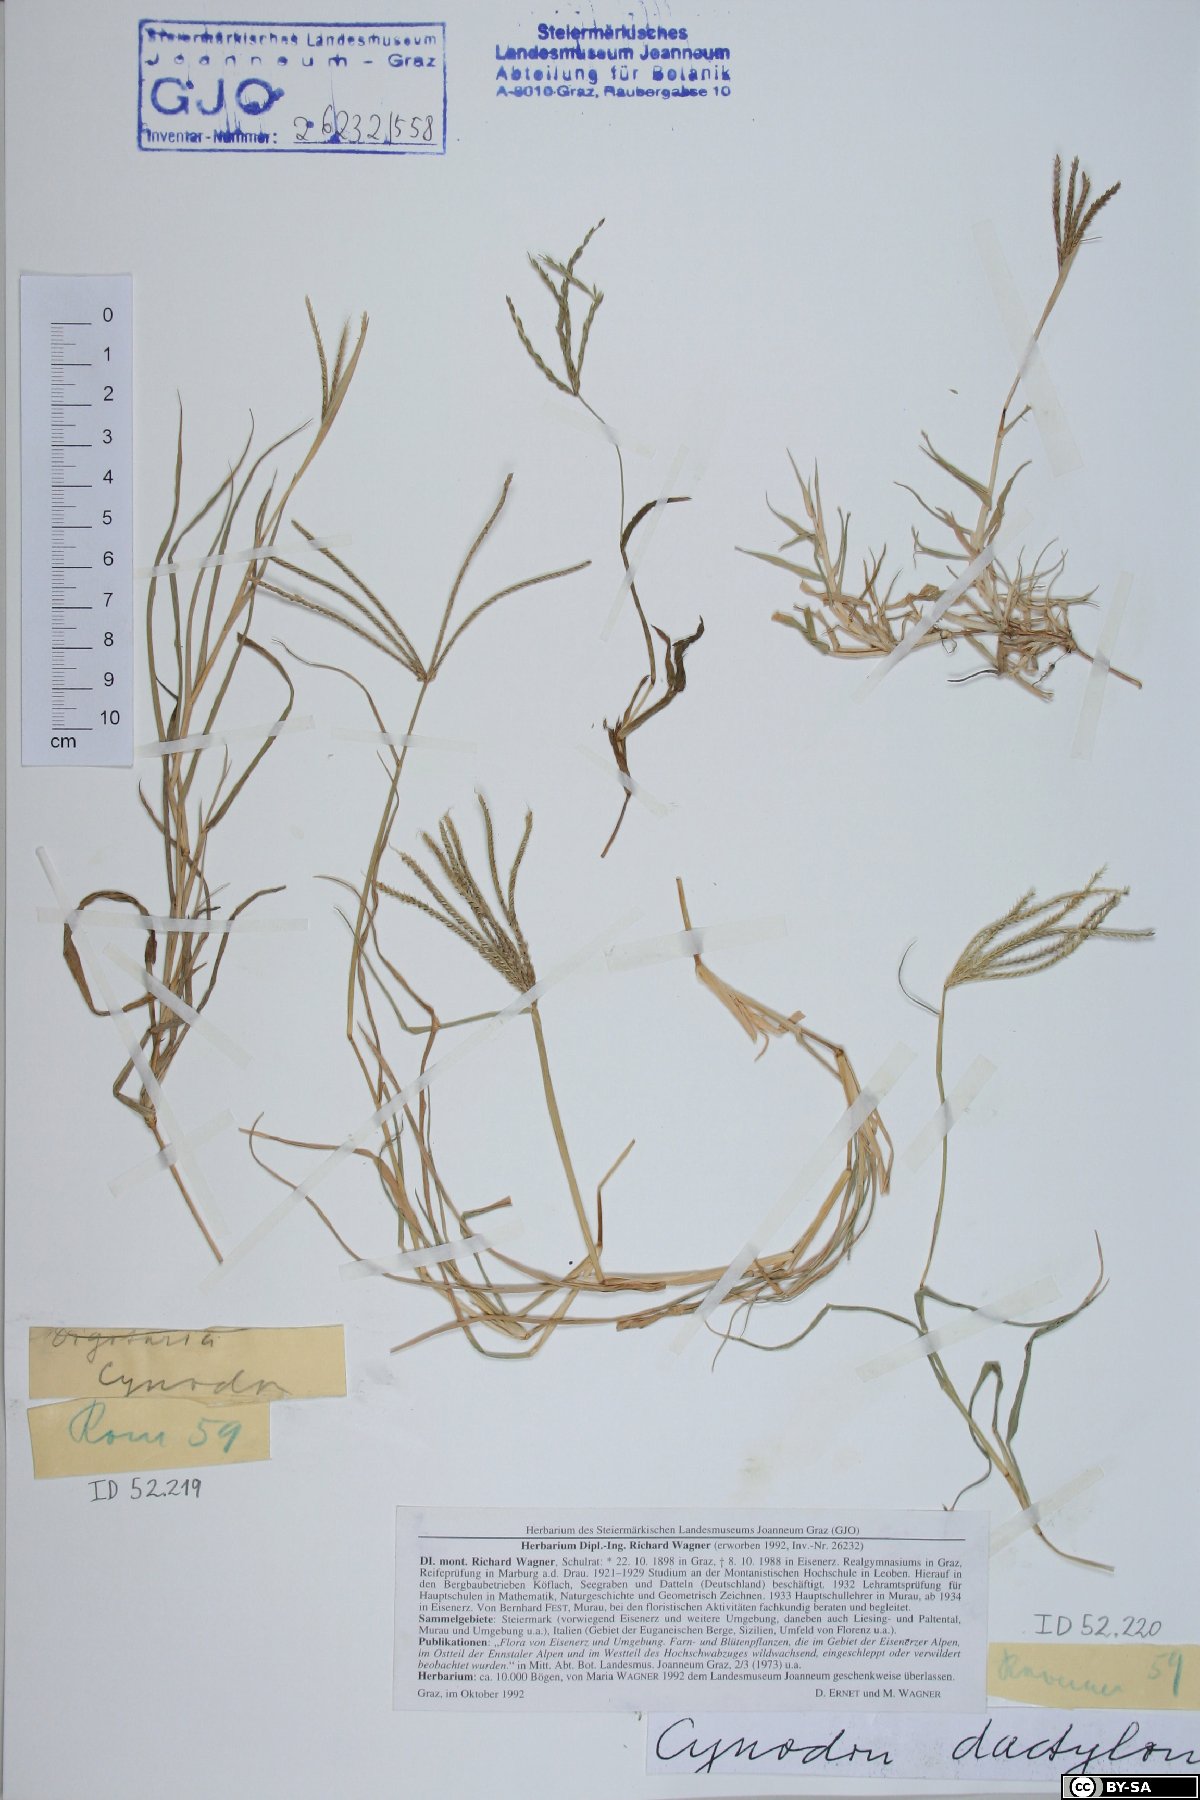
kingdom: Plantae
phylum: Tracheophyta
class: Liliopsida
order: Poales
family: Poaceae
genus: Cynodon
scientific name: Cynodon dactylon
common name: Bermuda grass
